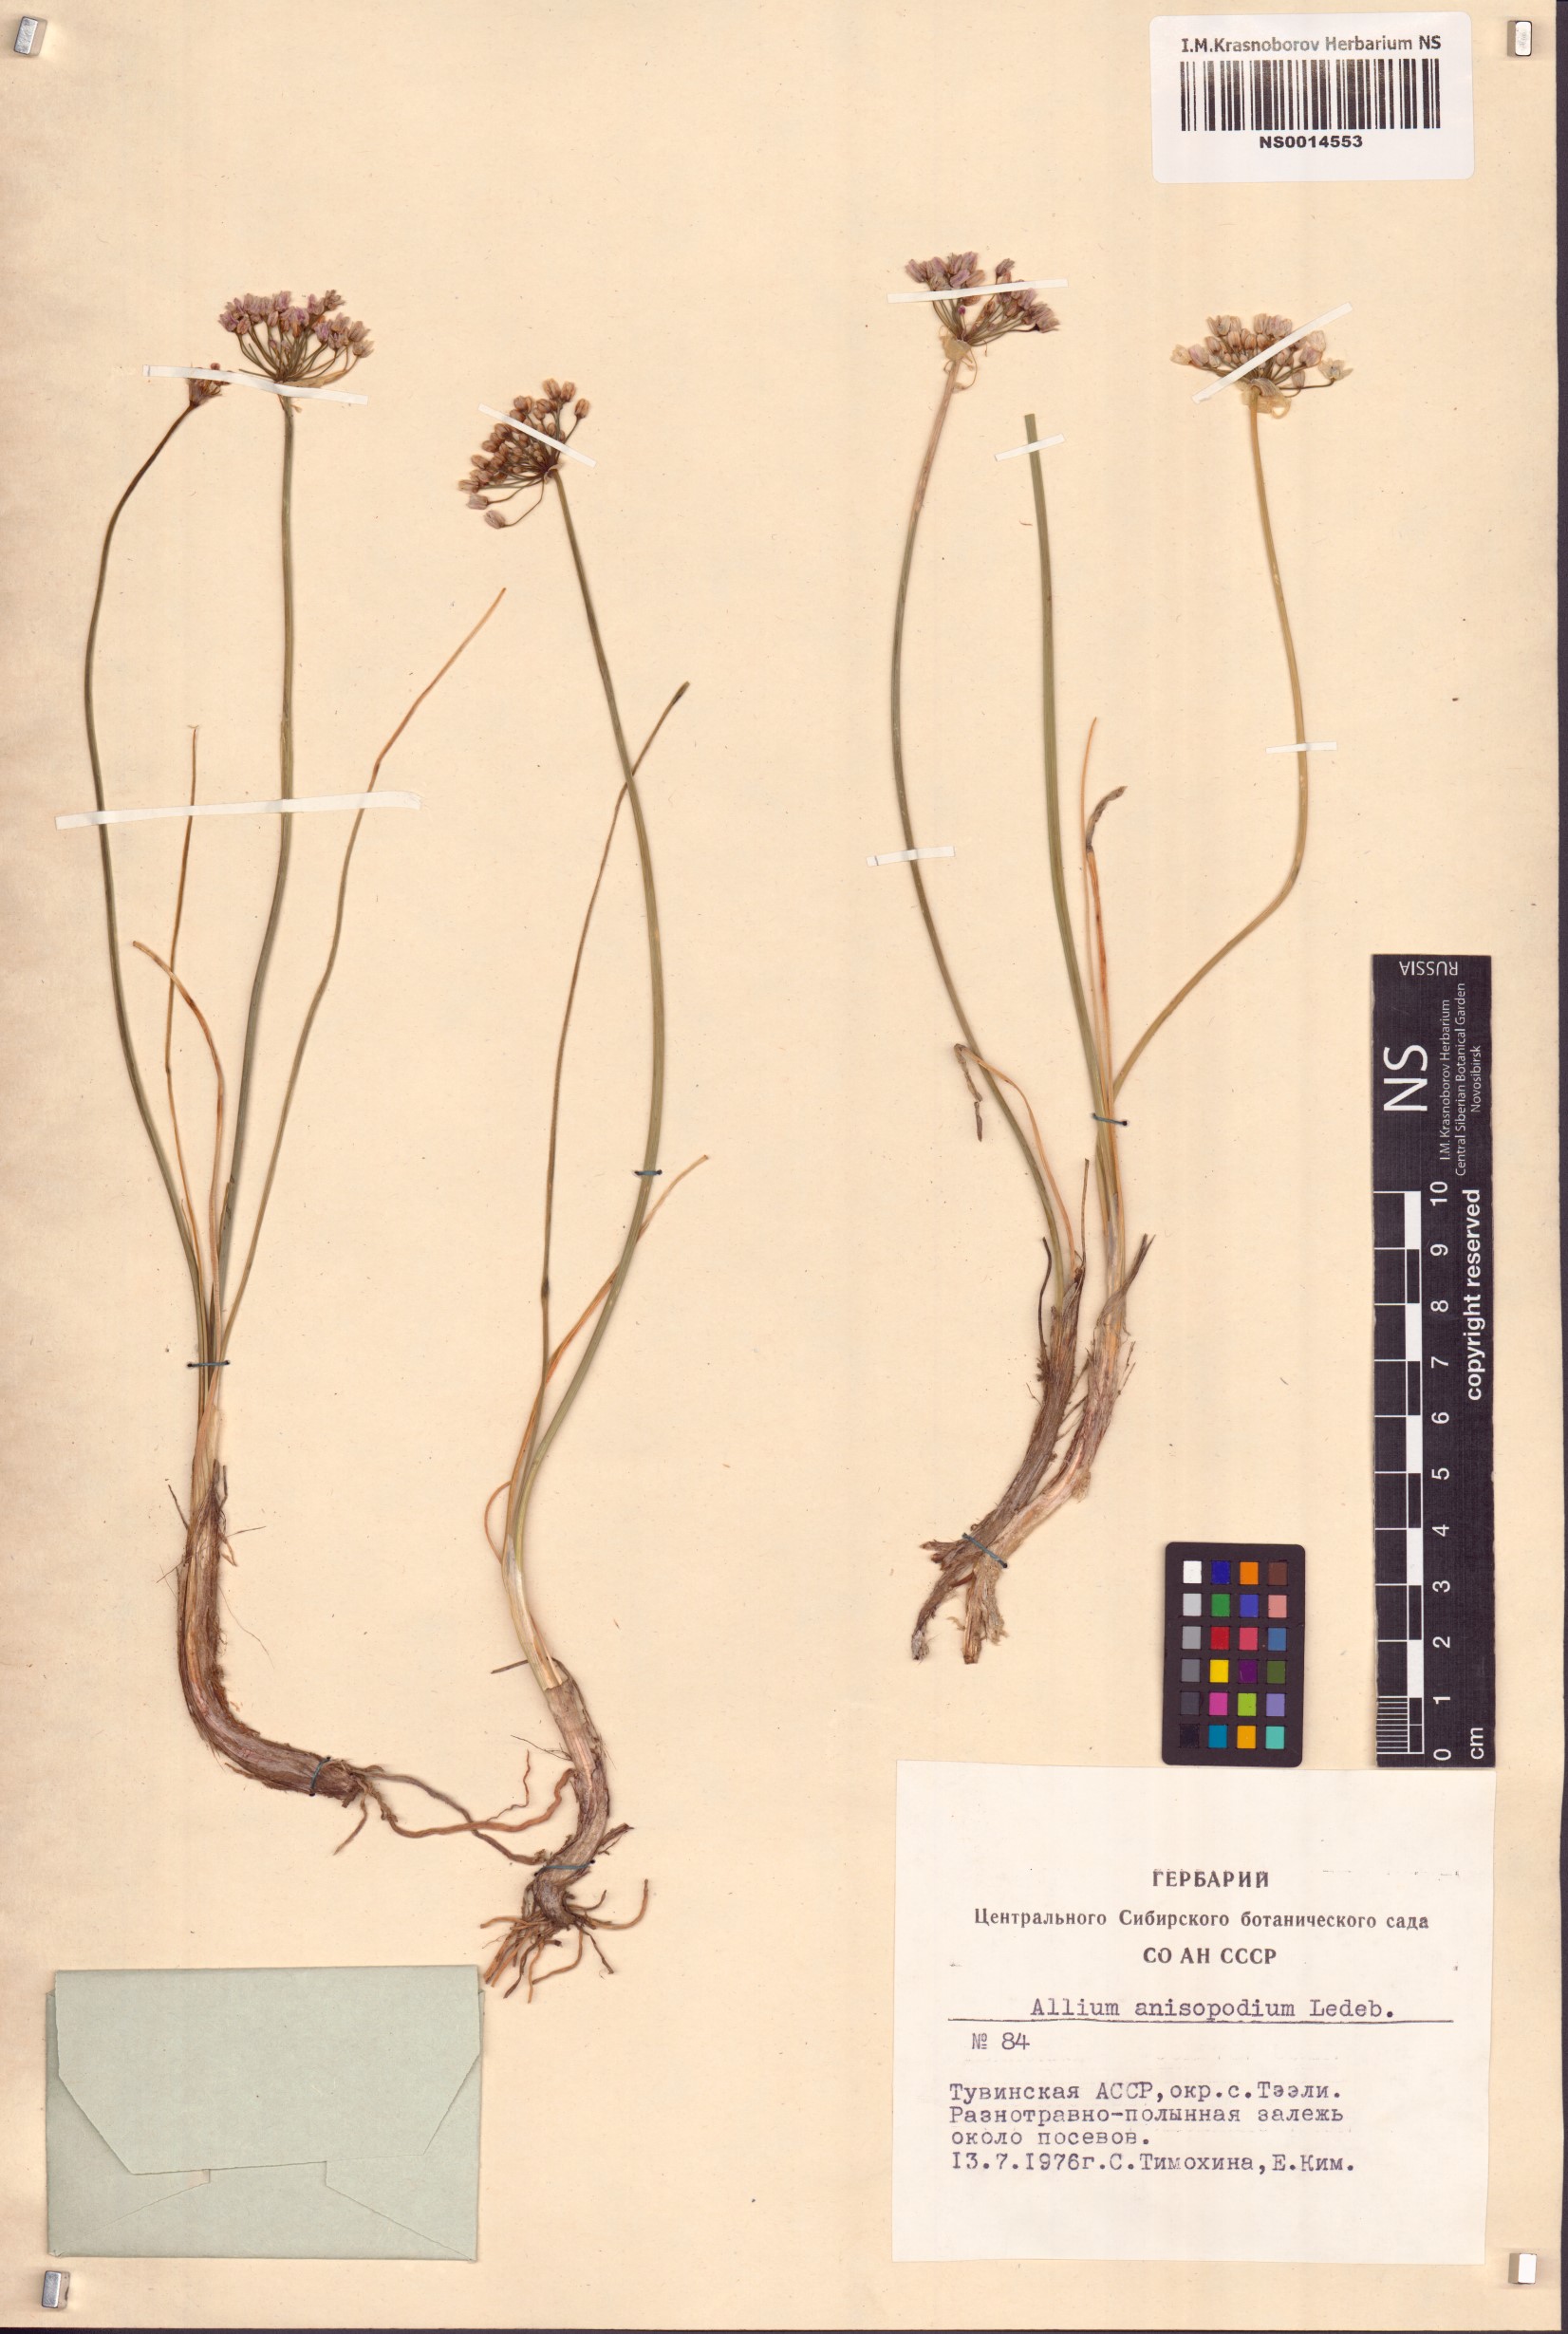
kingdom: Plantae
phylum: Tracheophyta
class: Liliopsida
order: Asparagales
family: Amaryllidaceae
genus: Allium
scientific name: Allium anisopodium
